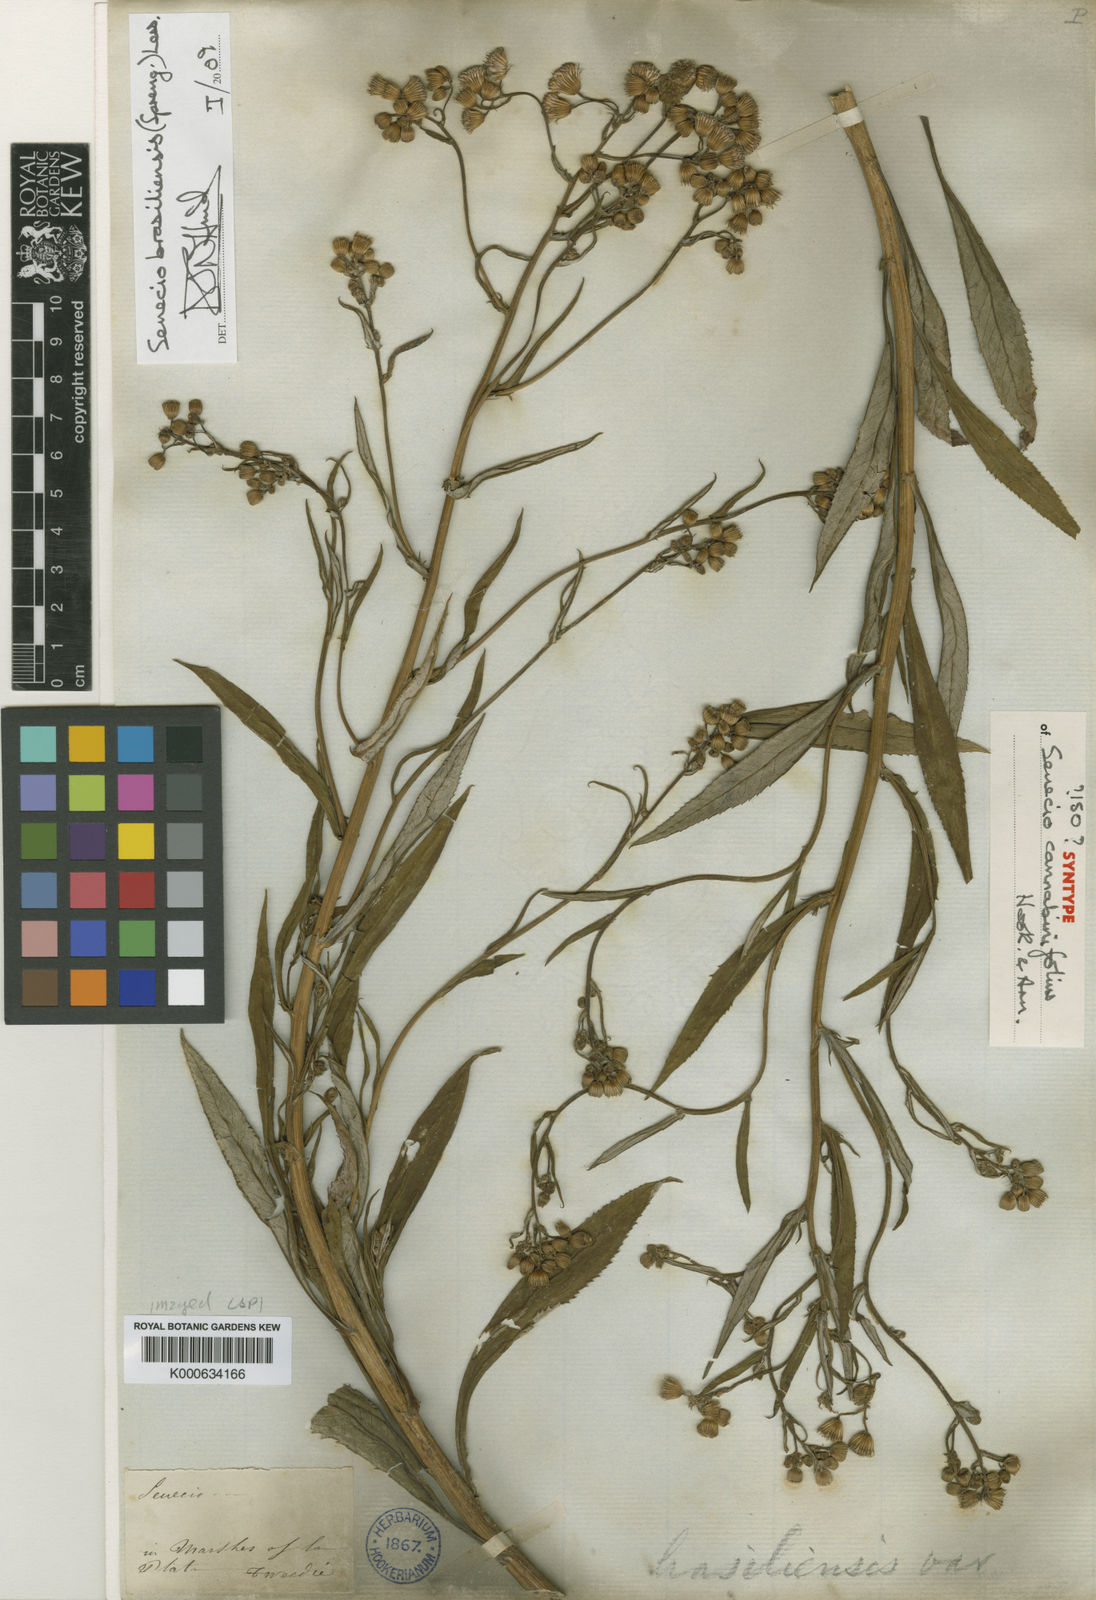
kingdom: Plantae
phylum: Tracheophyta
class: Magnoliopsida
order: Asterales
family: Asteraceae
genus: Senecio
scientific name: Senecio brasiliensis
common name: Hemp-leaf ragwort
